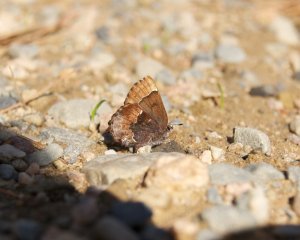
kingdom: Animalia
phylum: Arthropoda
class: Insecta
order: Lepidoptera
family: Lycaenidae
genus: Incisalia
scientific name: Incisalia henrici
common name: Henry's Elfin
